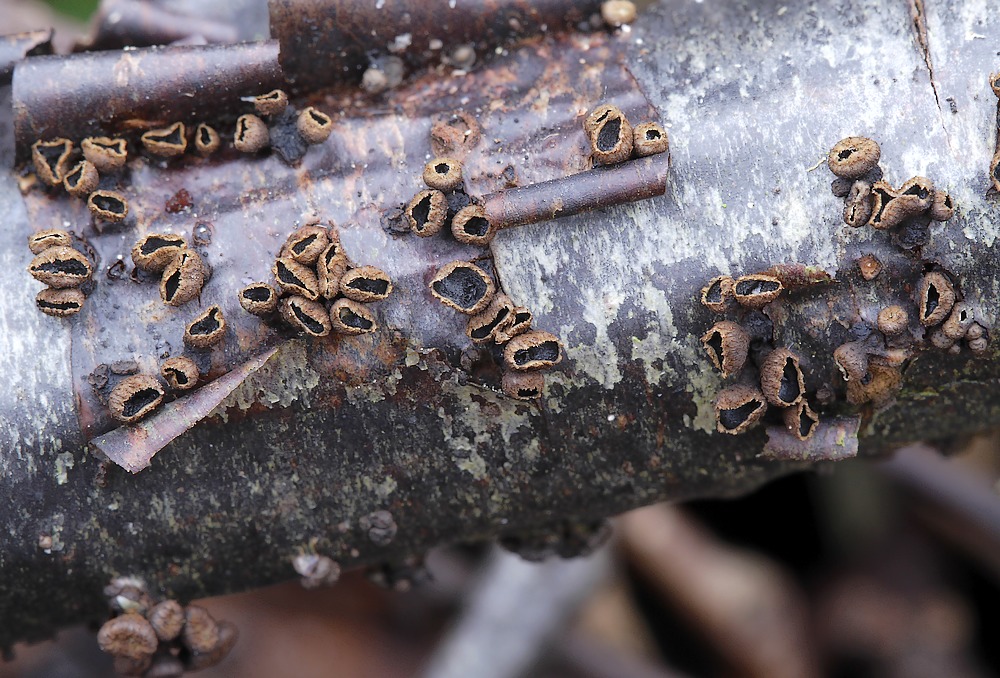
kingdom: Fungi
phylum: Ascomycota
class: Leotiomycetes
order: Helotiales
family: Godroniaceae
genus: Godronia
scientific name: Godronia uberiformis
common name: solbær-urneskive
